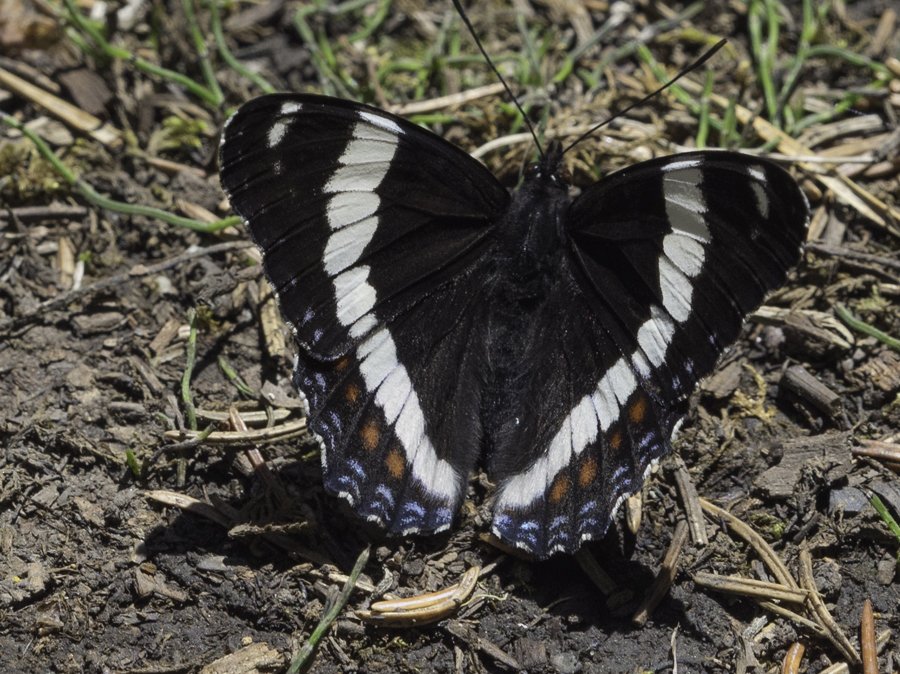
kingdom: Animalia
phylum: Arthropoda
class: Insecta
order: Lepidoptera
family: Nymphalidae
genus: Limenitis
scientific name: Limenitis arthemis
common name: Red-spotted Admiral
